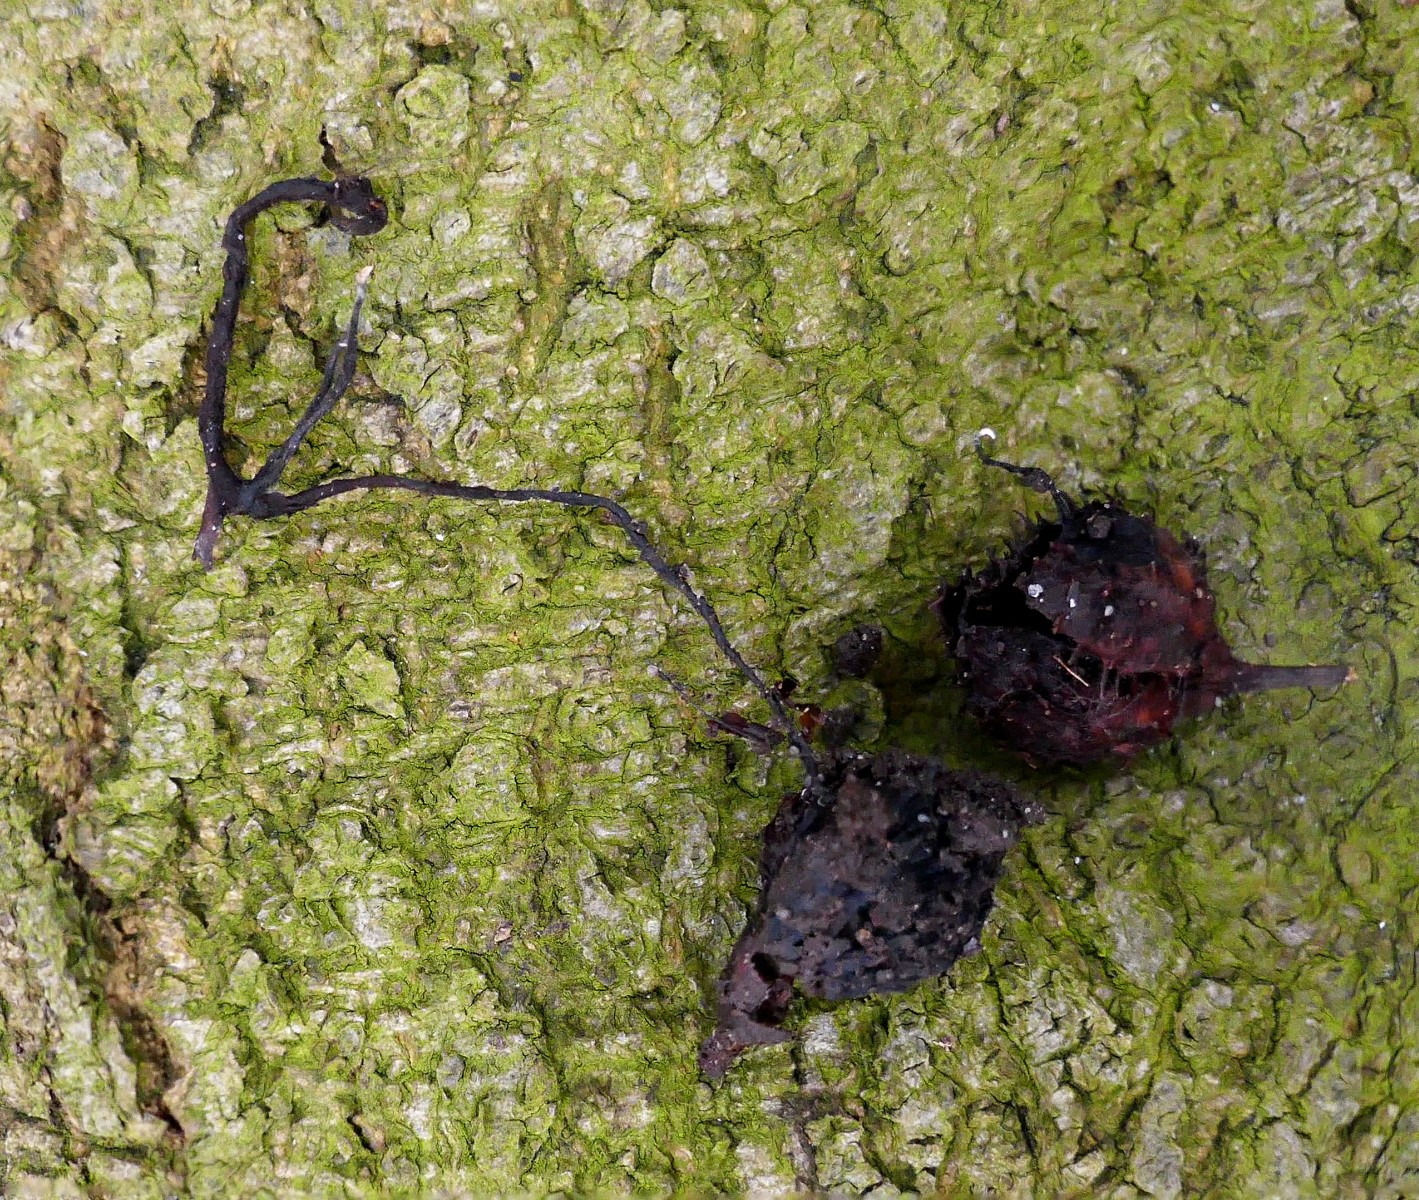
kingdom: Fungi
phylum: Ascomycota
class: Sordariomycetes
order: Xylariales
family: Xylariaceae
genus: Xylaria
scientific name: Xylaria carpophila
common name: bogskål-stødsvamp
